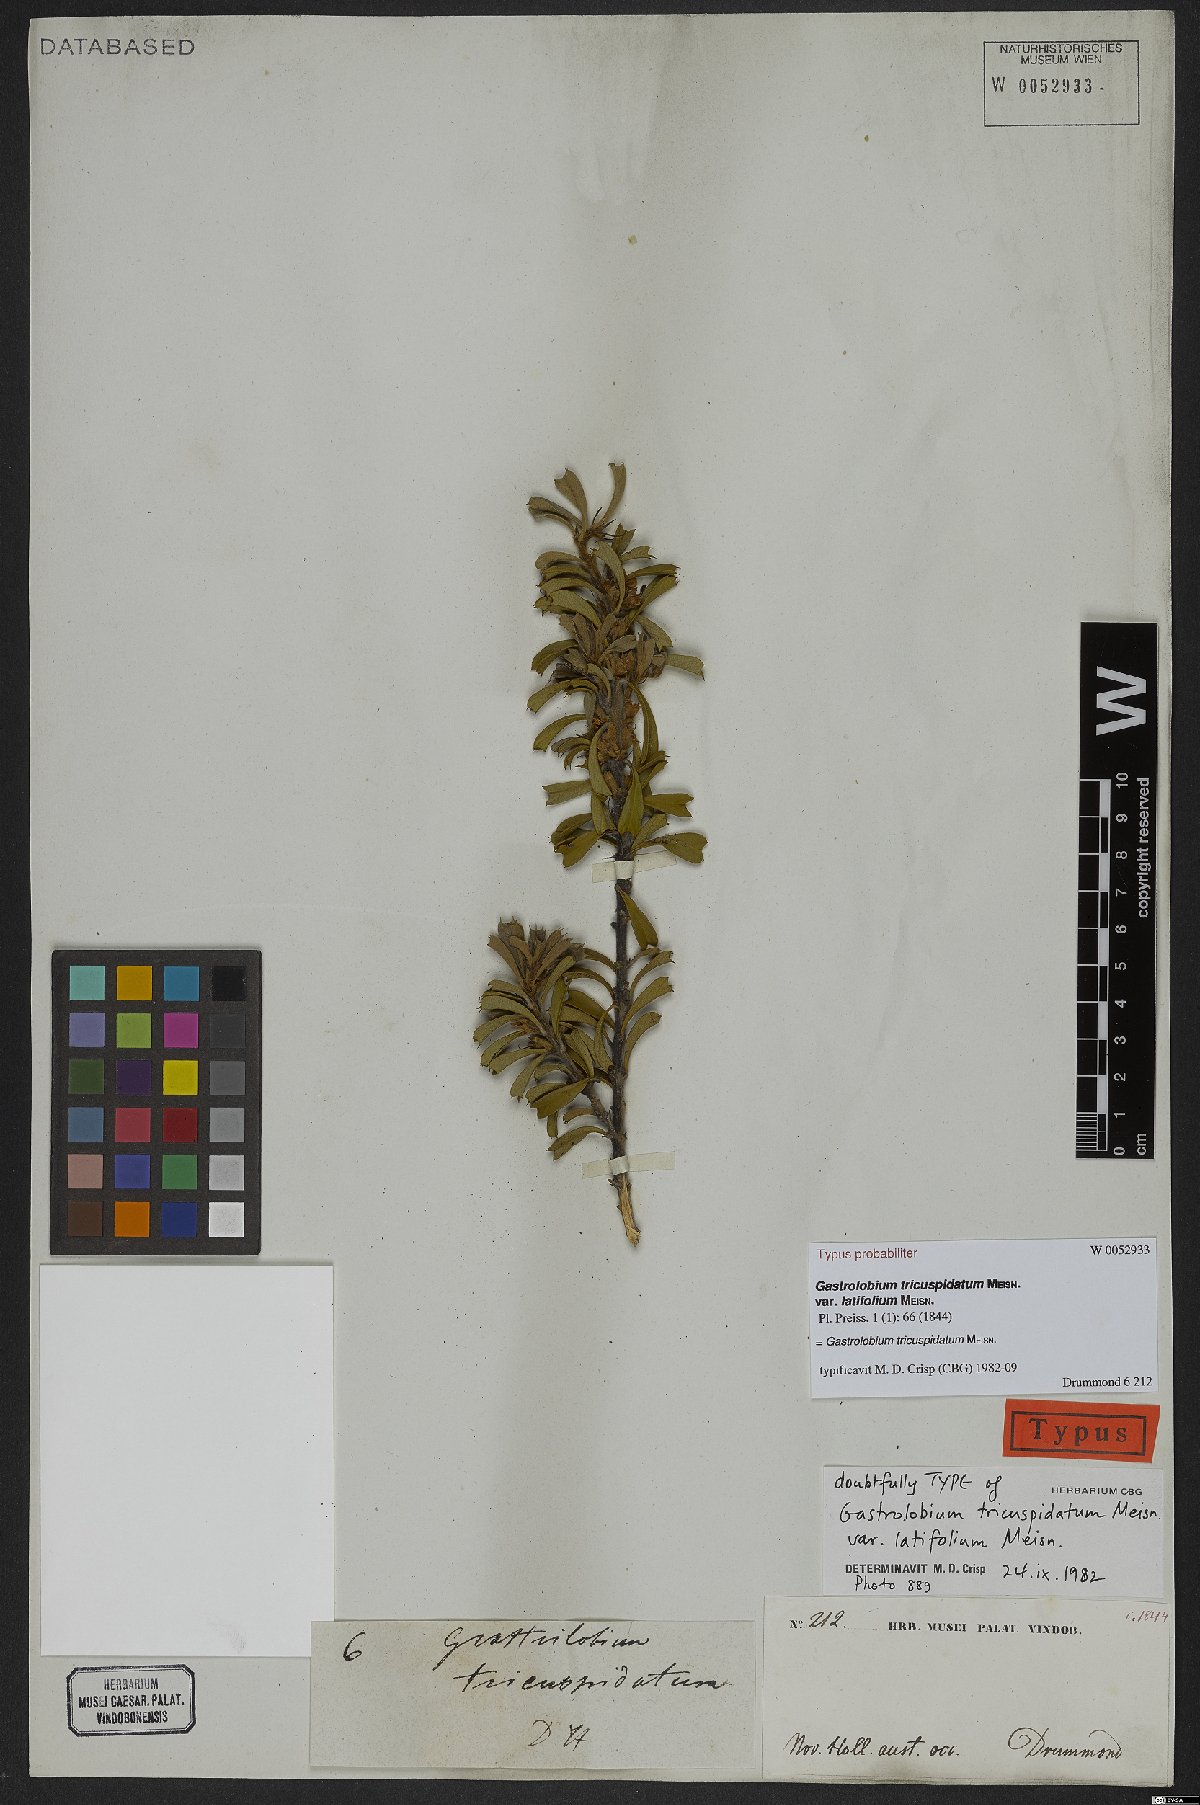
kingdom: Plantae
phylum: Tracheophyta
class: Magnoliopsida
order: Fabales
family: Fabaceae
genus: Gastrolobium
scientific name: Gastrolobium tricuspidatum
